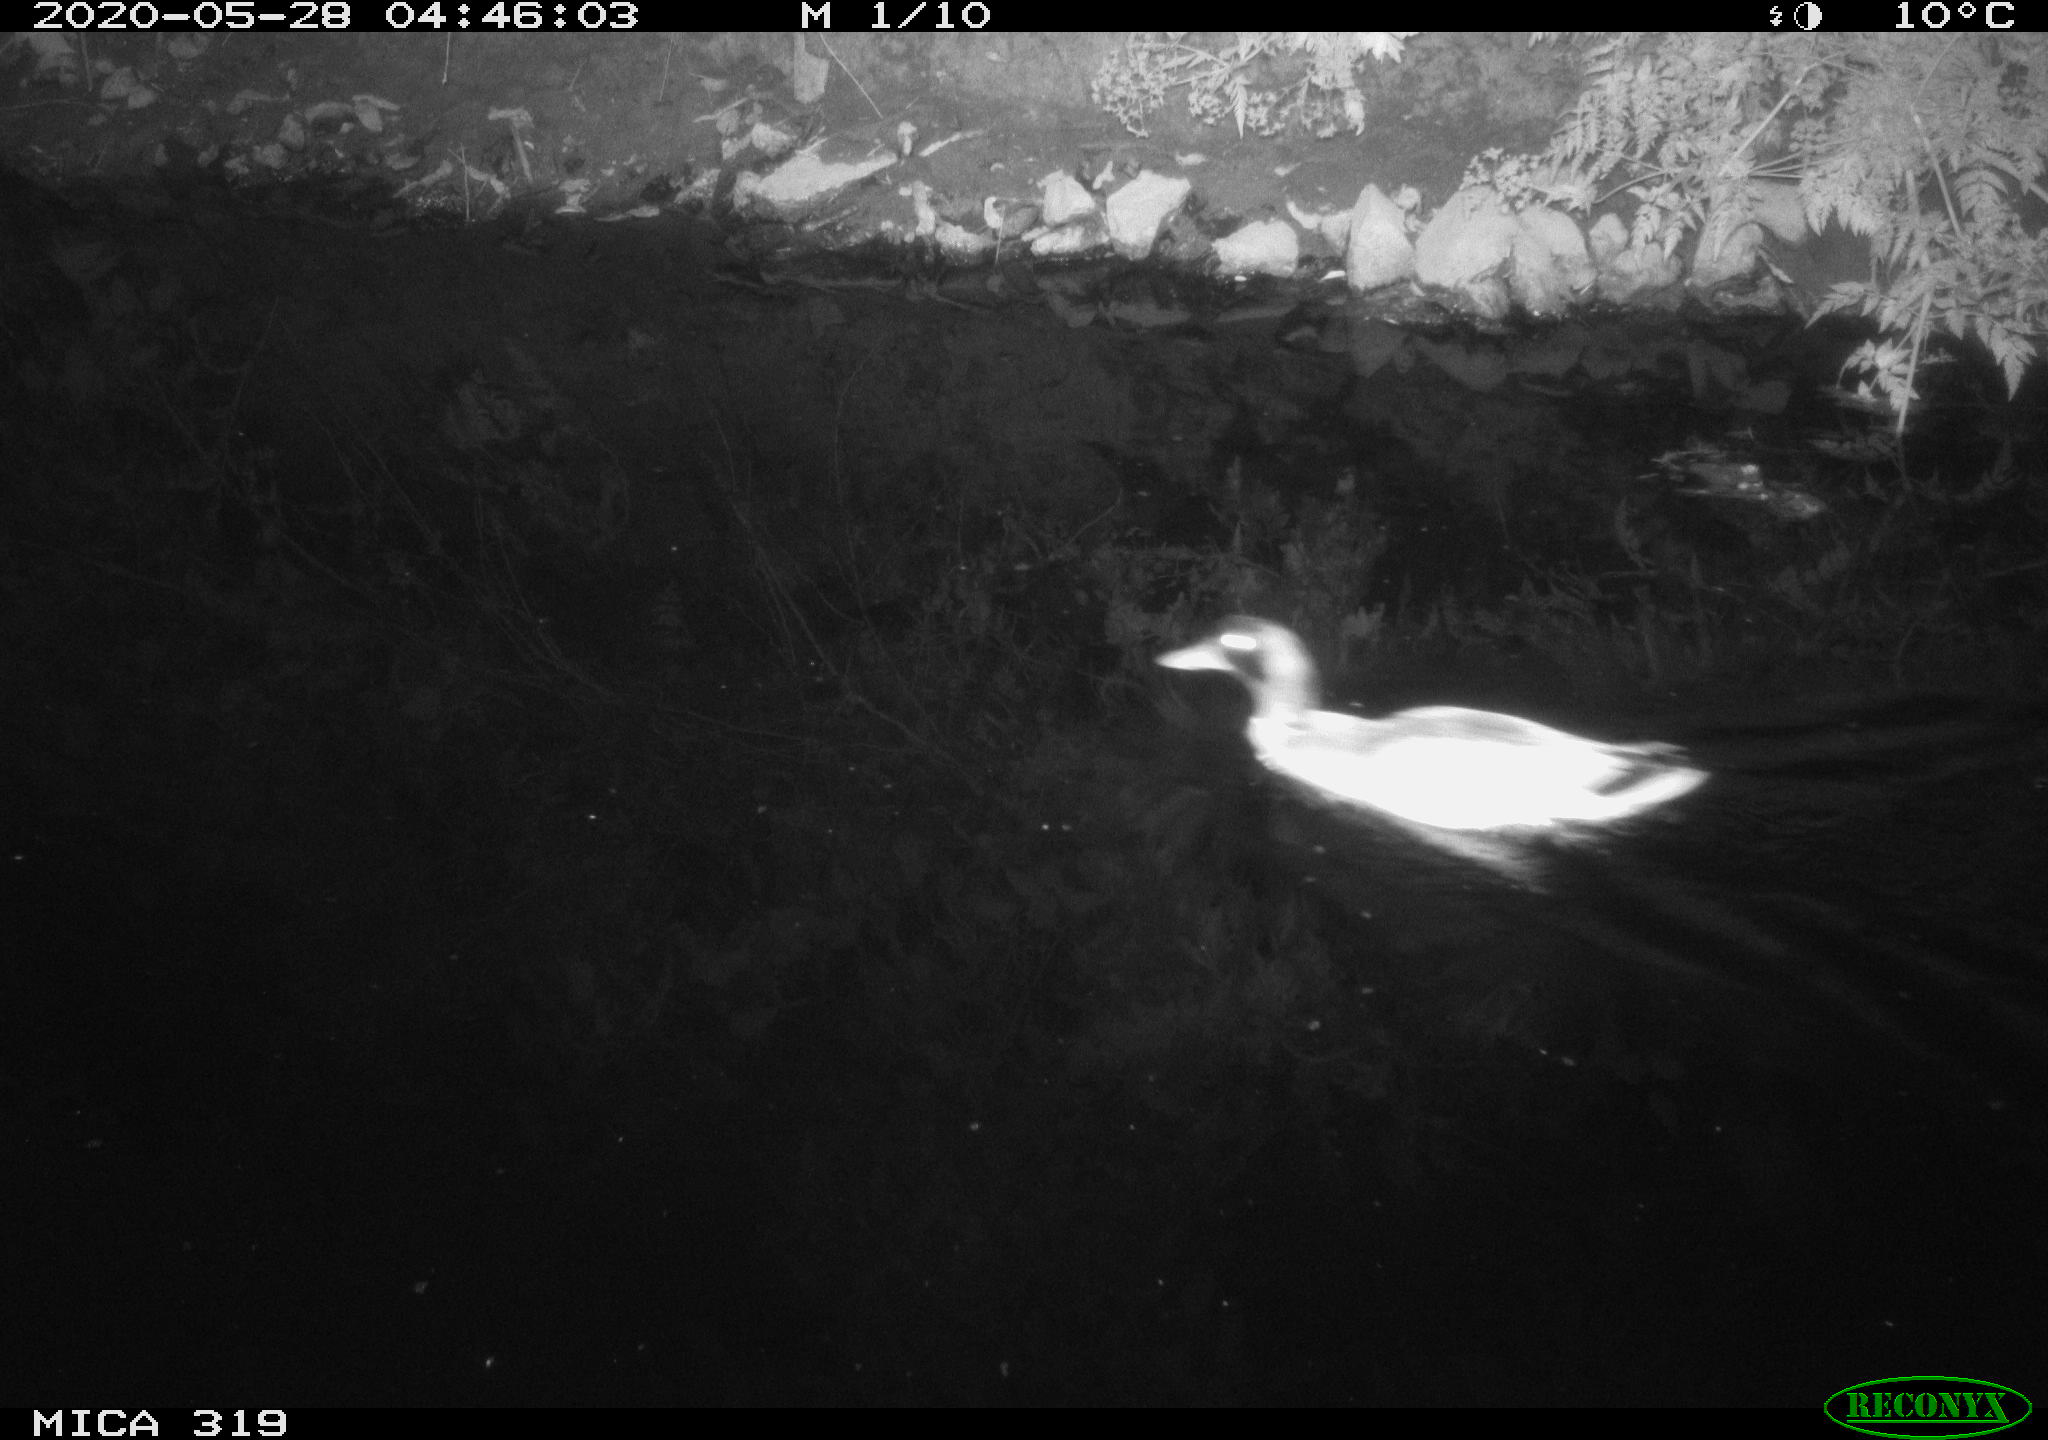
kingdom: Animalia
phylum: Chordata
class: Aves
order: Anseriformes
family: Anatidae
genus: Anas
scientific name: Anas platyrhynchos
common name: Mallard
